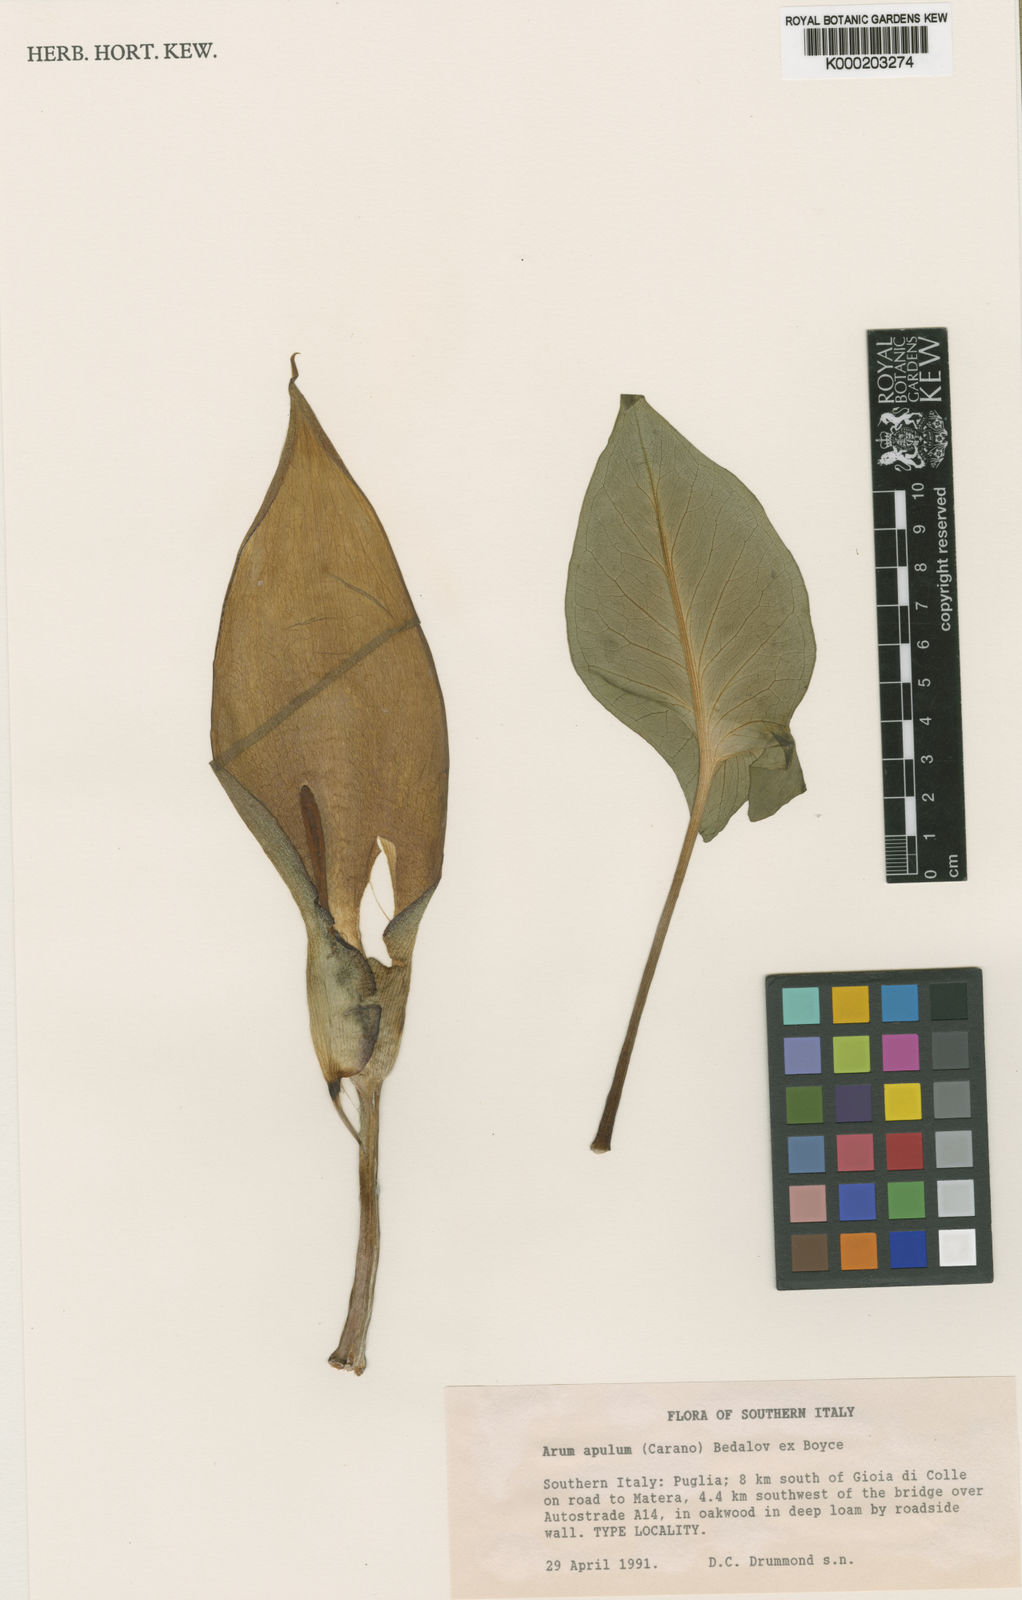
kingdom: Plantae
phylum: Tracheophyta
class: Liliopsida
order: Alismatales
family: Araceae
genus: Arum
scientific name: Arum apulum
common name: Apulian lords and ladies
